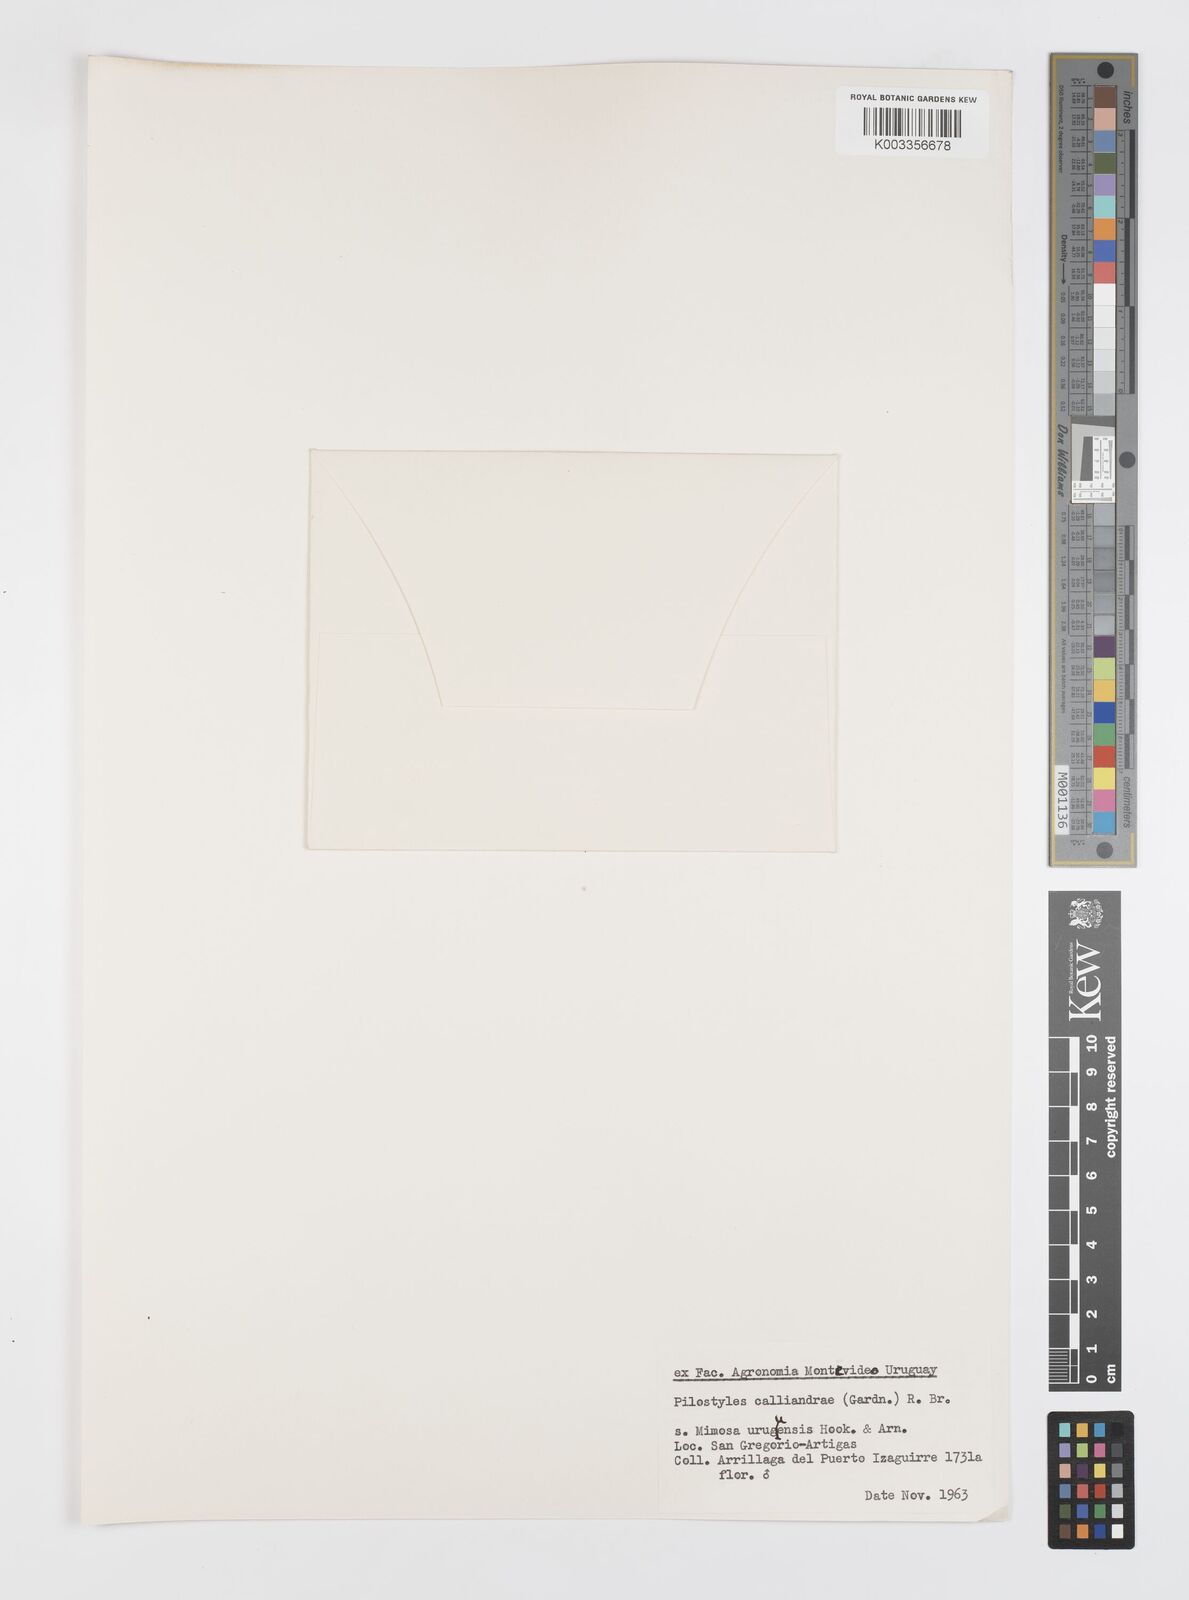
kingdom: Plantae
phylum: Tracheophyta
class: Magnoliopsida
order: Cucurbitales
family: Apodanthaceae
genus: Pilostyles
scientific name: Pilostyles blanchetii
